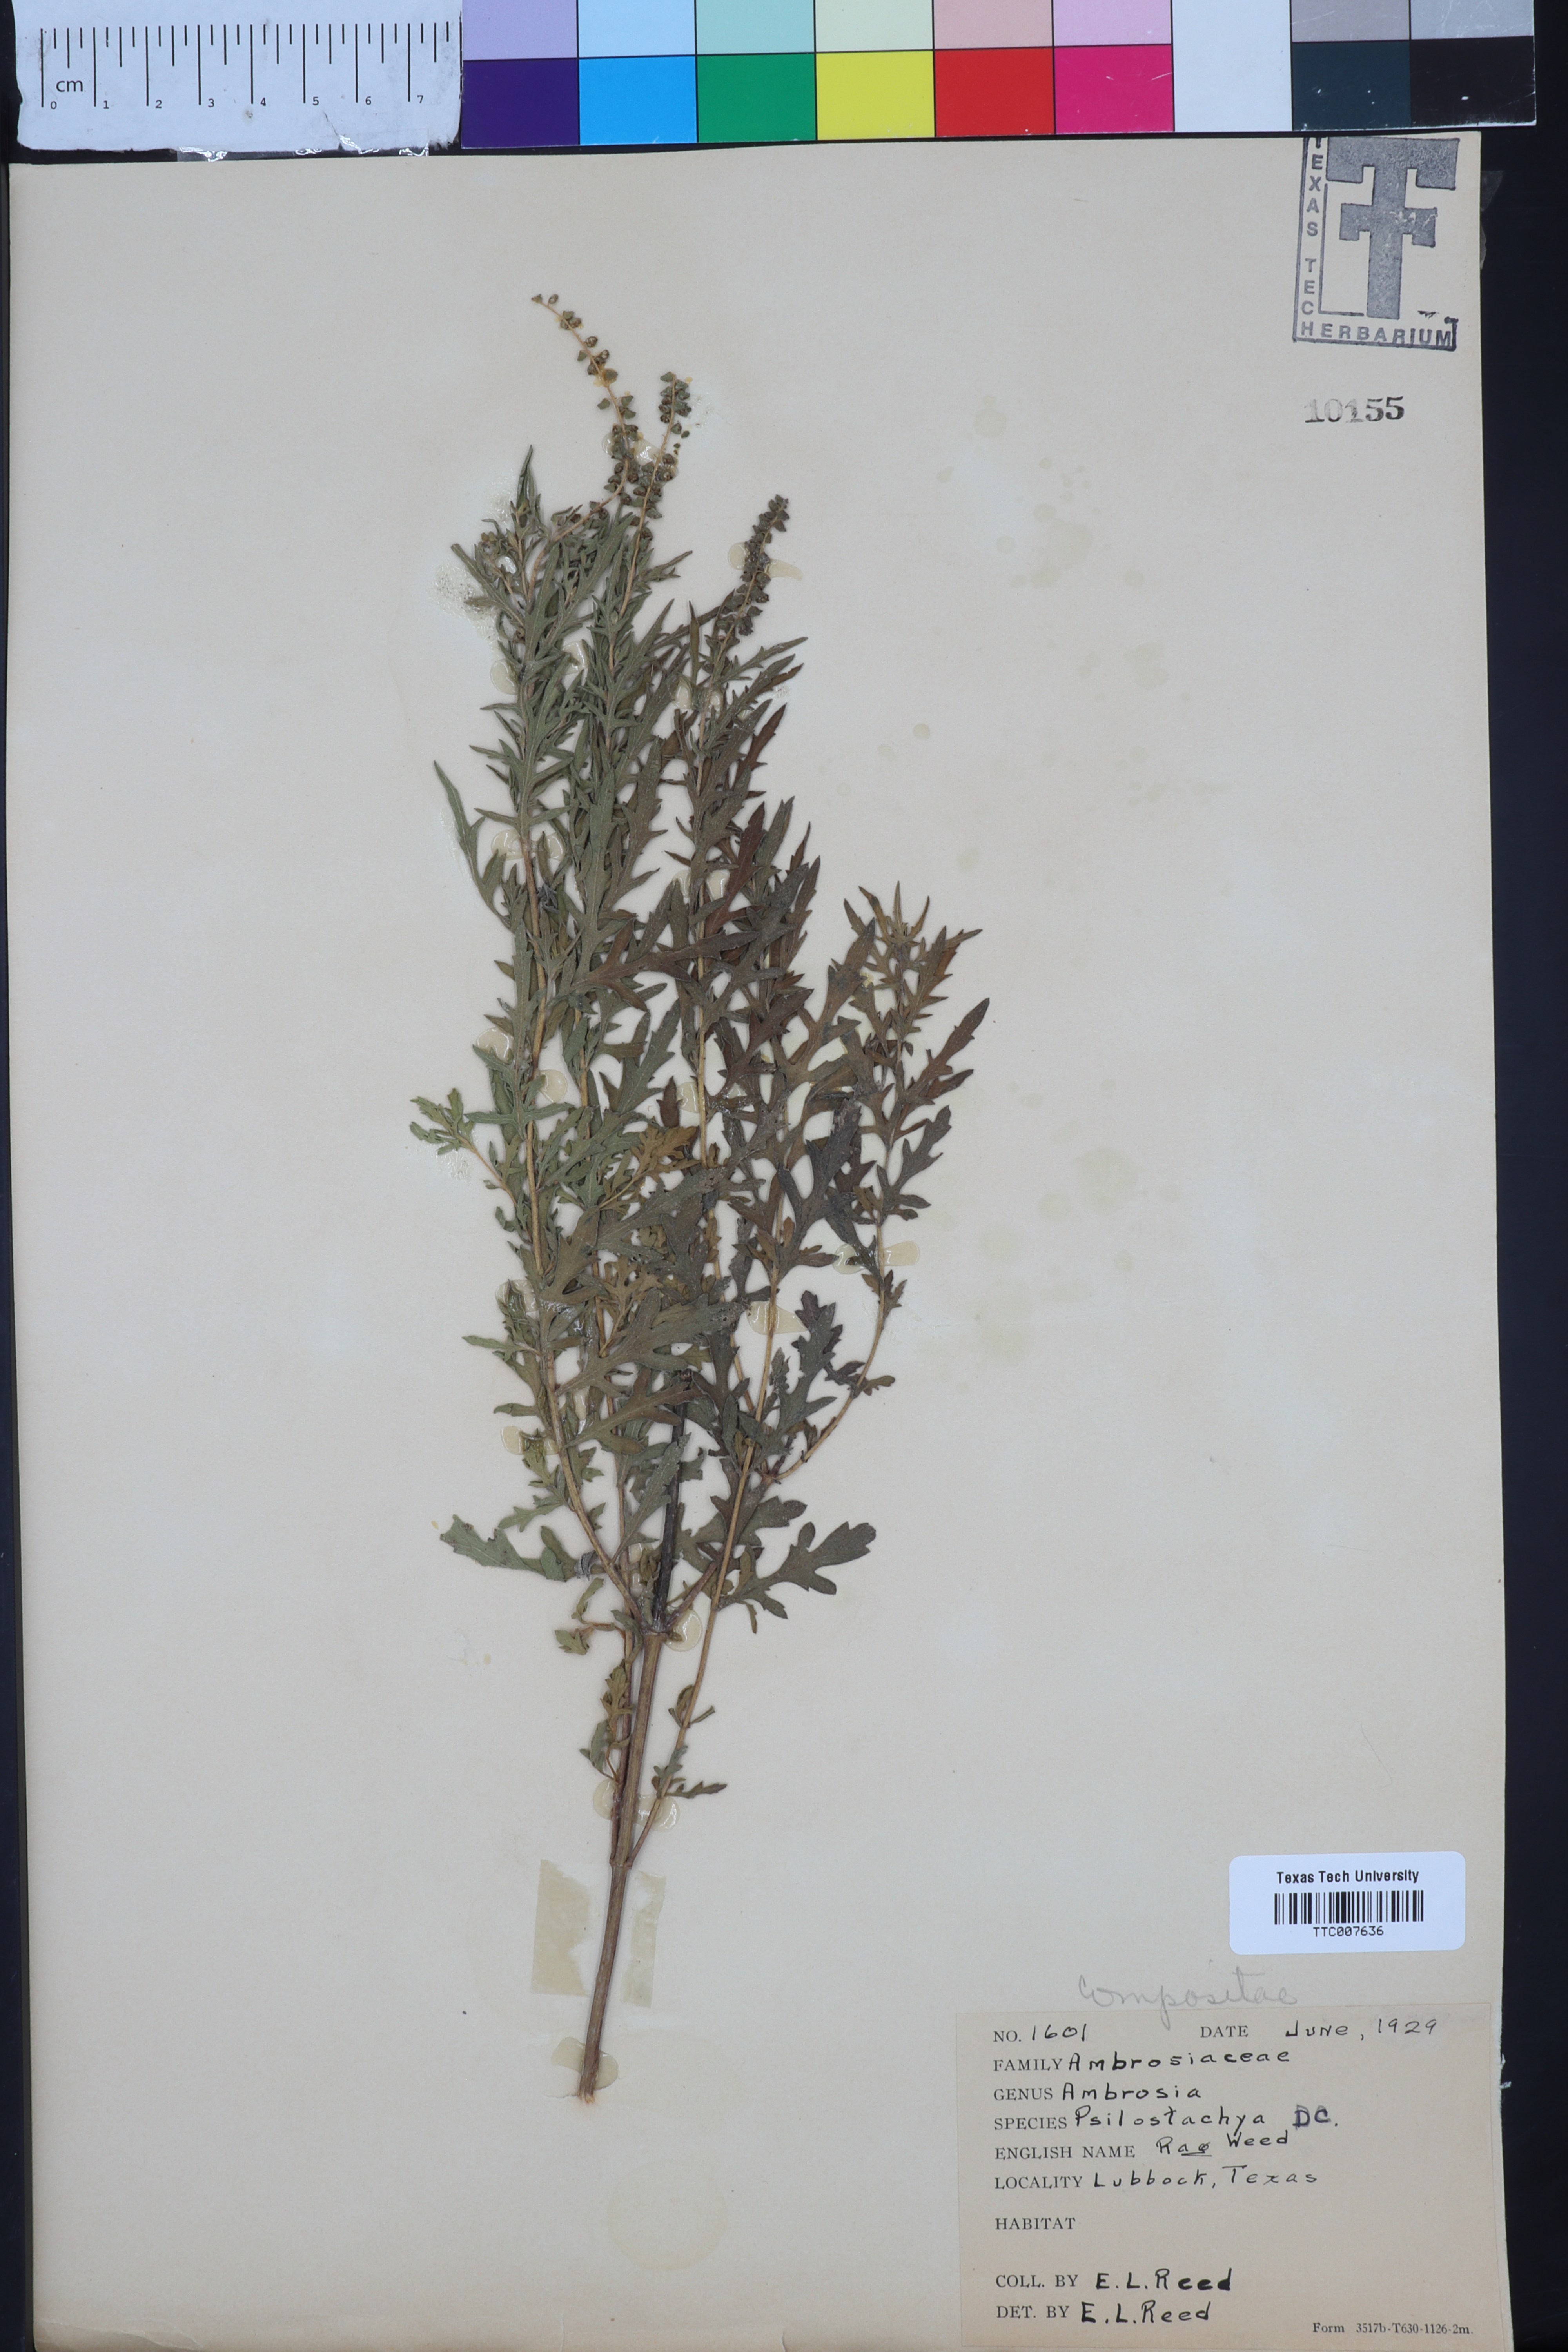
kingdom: Plantae
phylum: Tracheophyta
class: Magnoliopsida
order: Asterales
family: Asteraceae
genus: Ambrosia
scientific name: Ambrosia psilostachya
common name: Perennial ragweed
